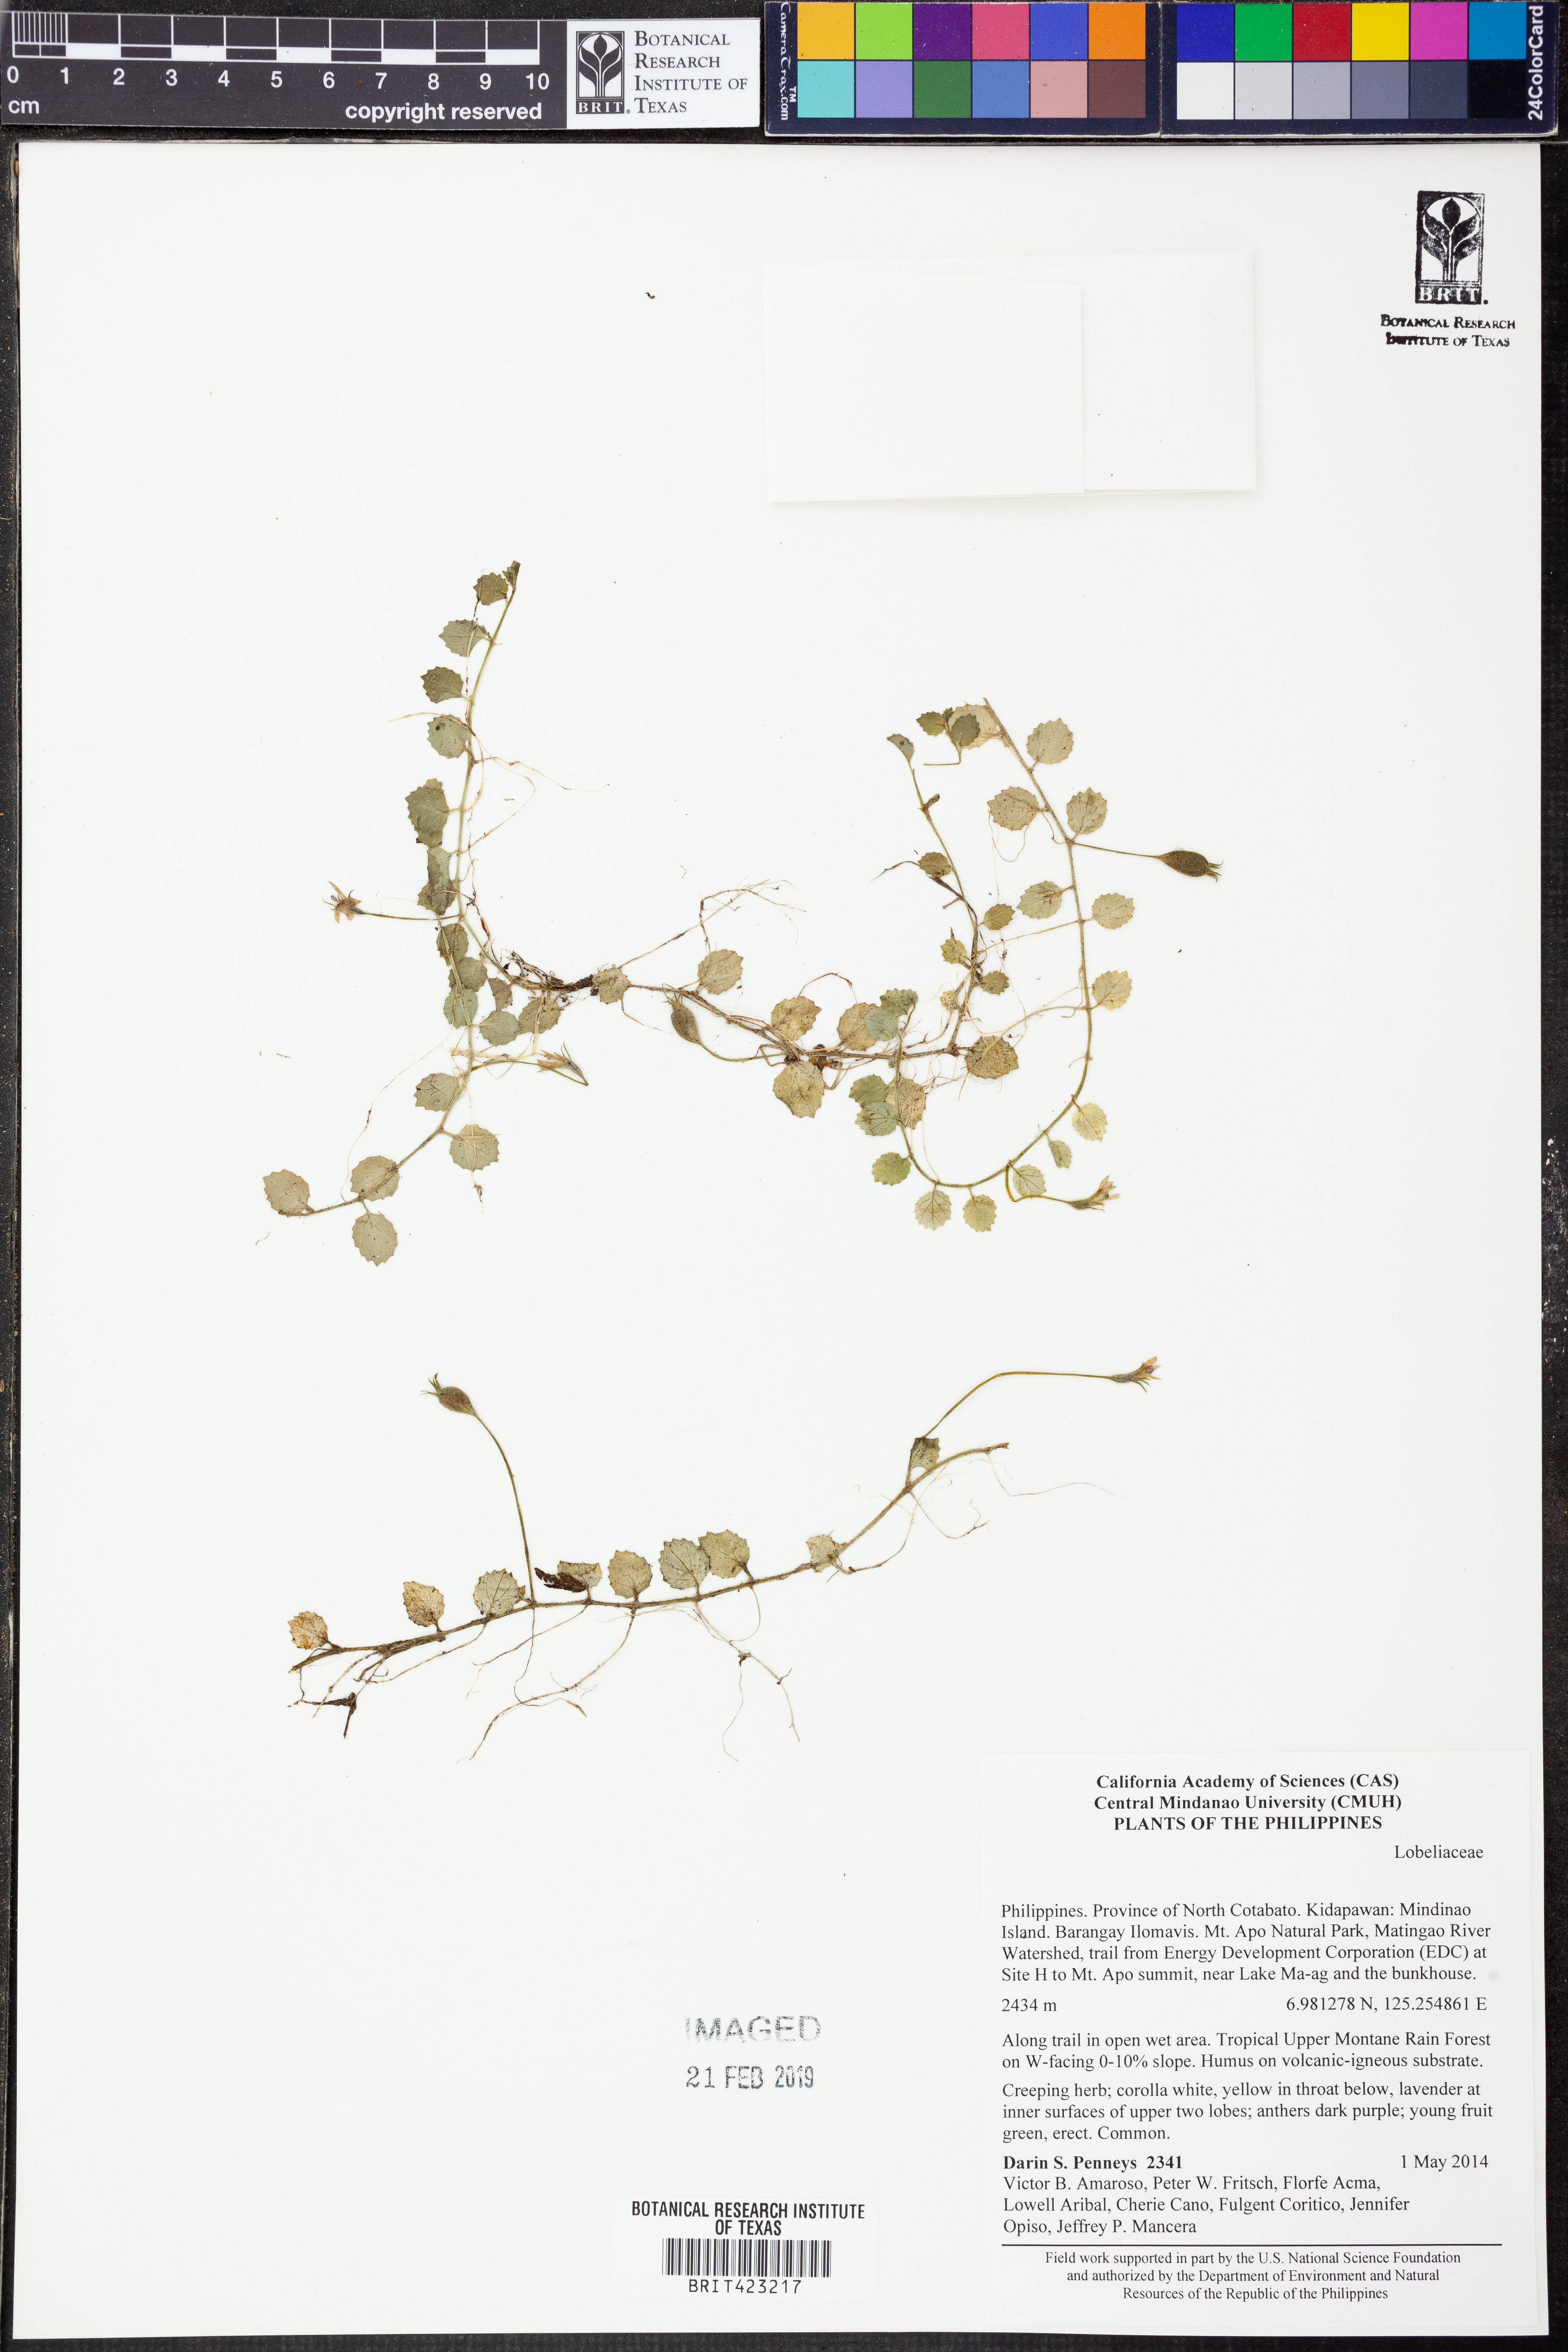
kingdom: Plantae
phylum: Tracheophyta
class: Magnoliopsida
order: Asterales
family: Campanulaceae
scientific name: Campanulaceae
